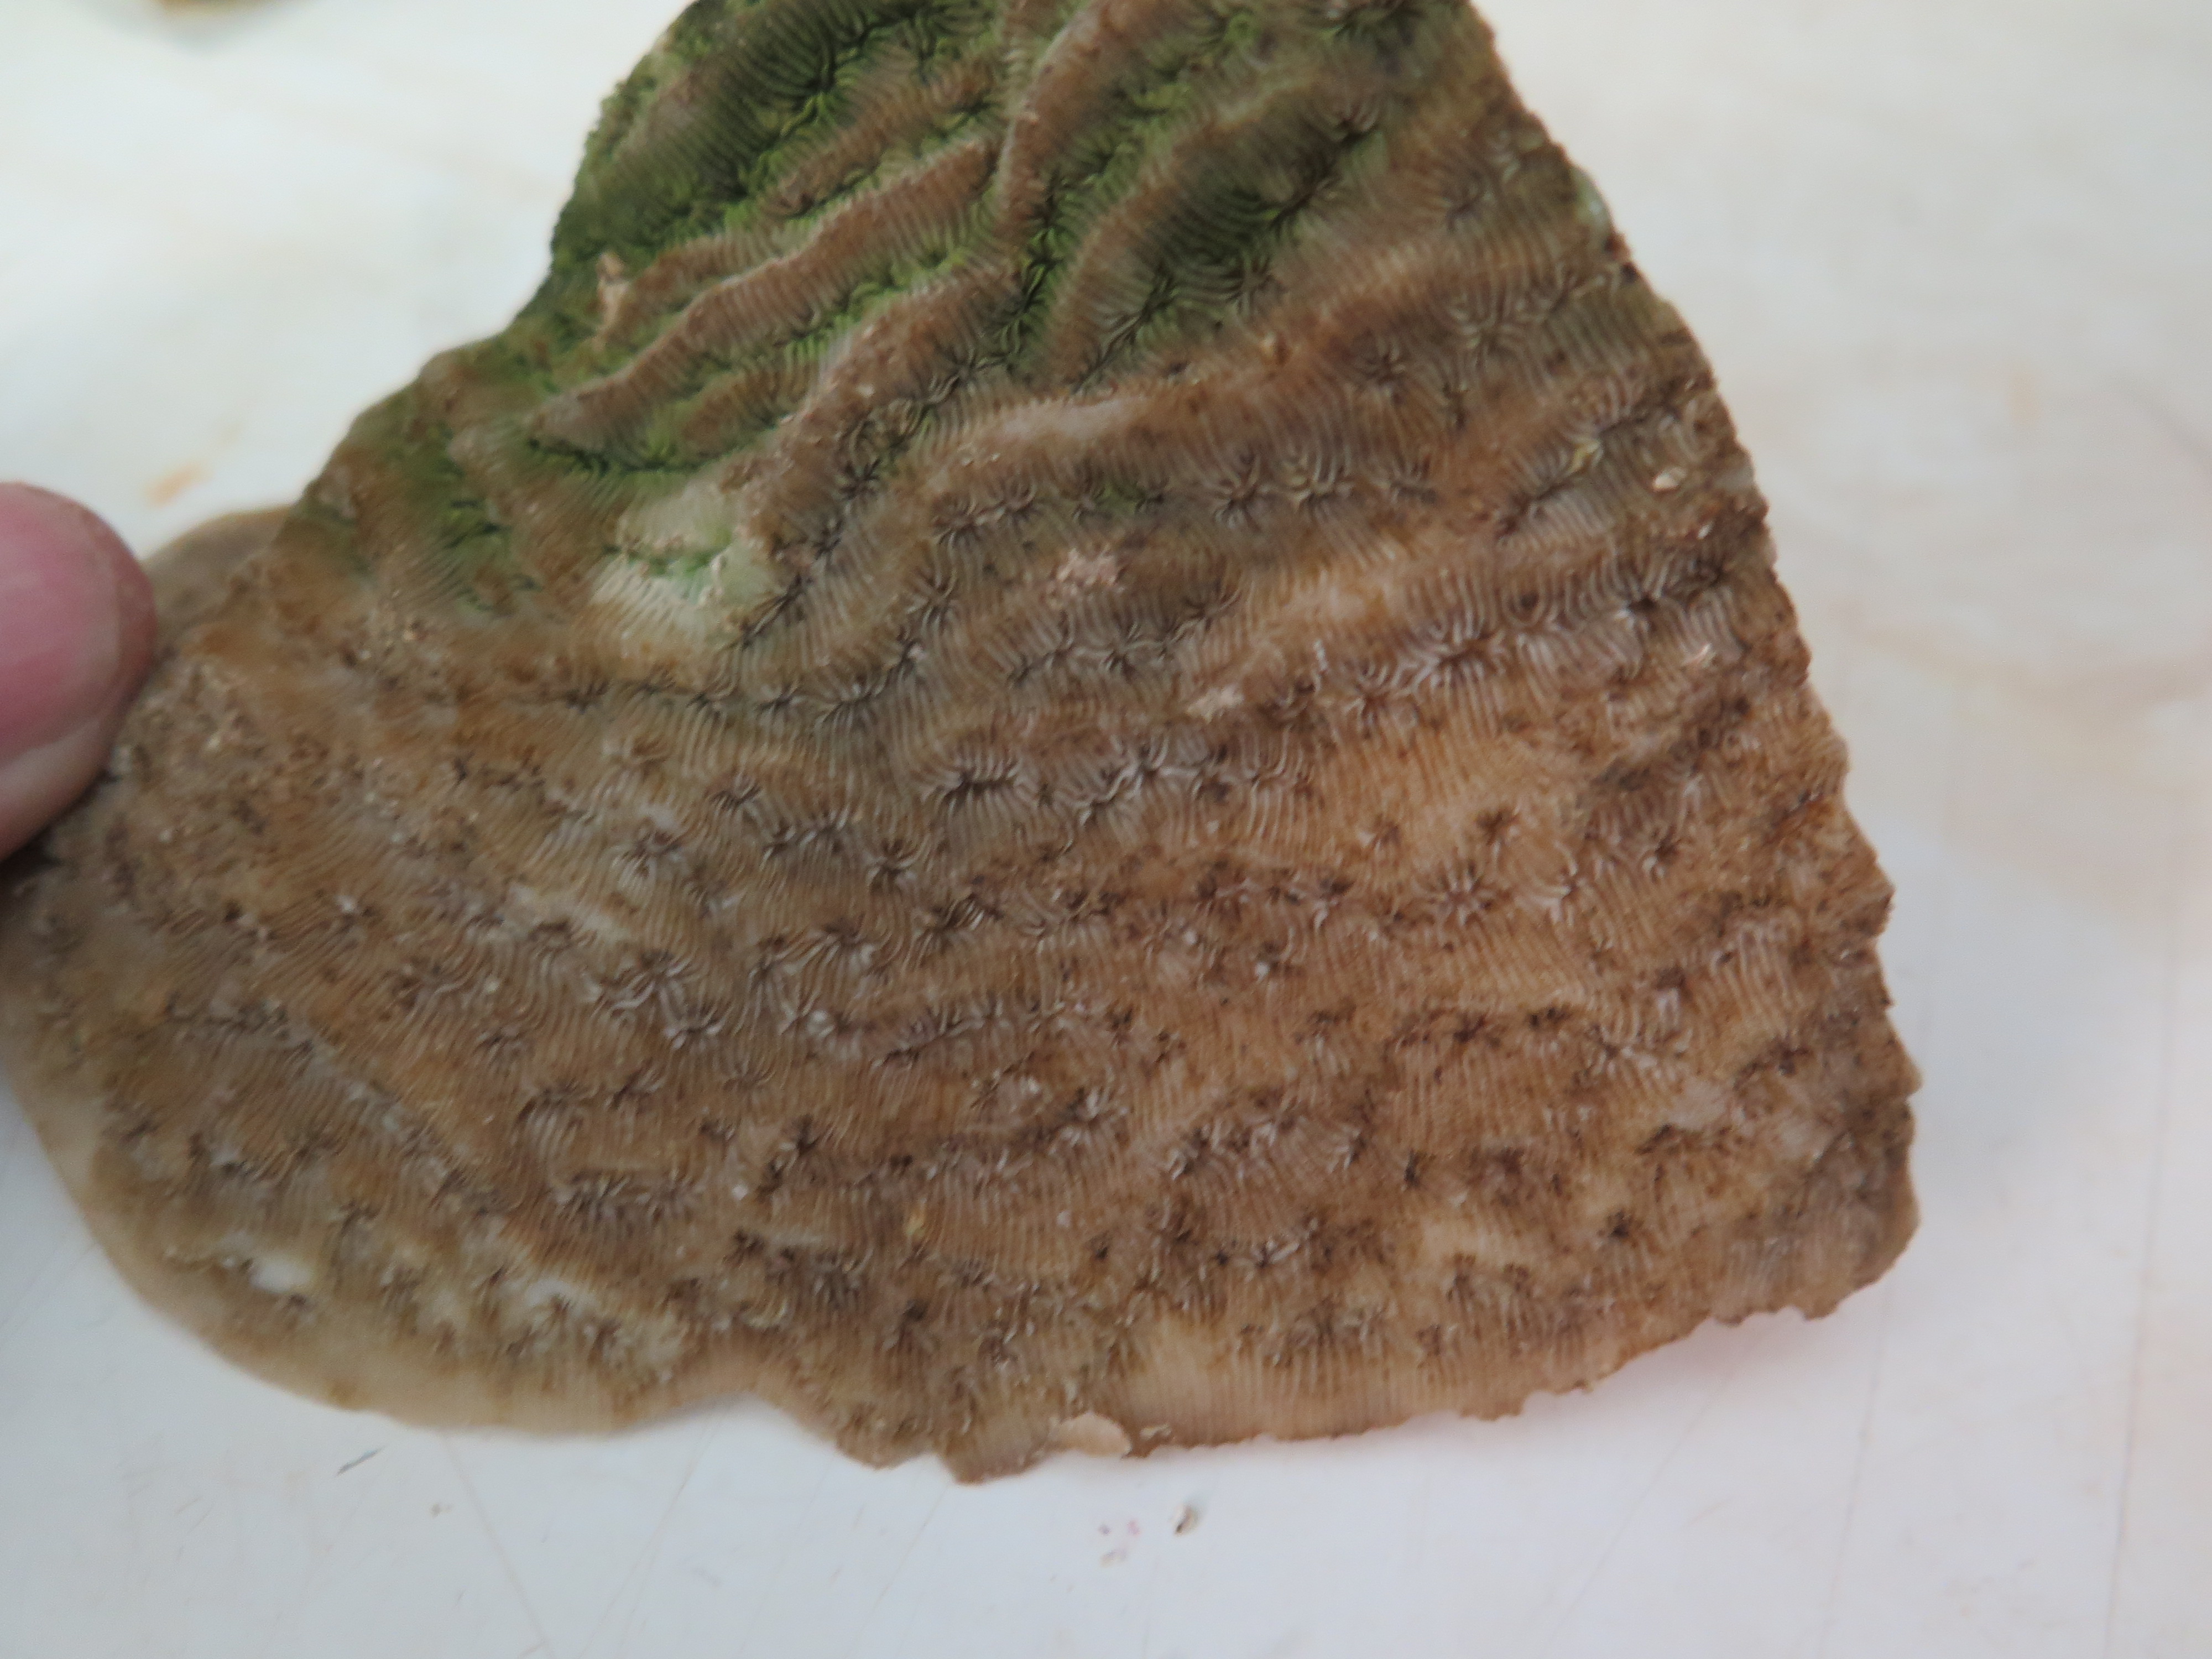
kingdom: Animalia
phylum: Cnidaria
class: Anthozoa
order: Scleractinia
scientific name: Scleractinia
